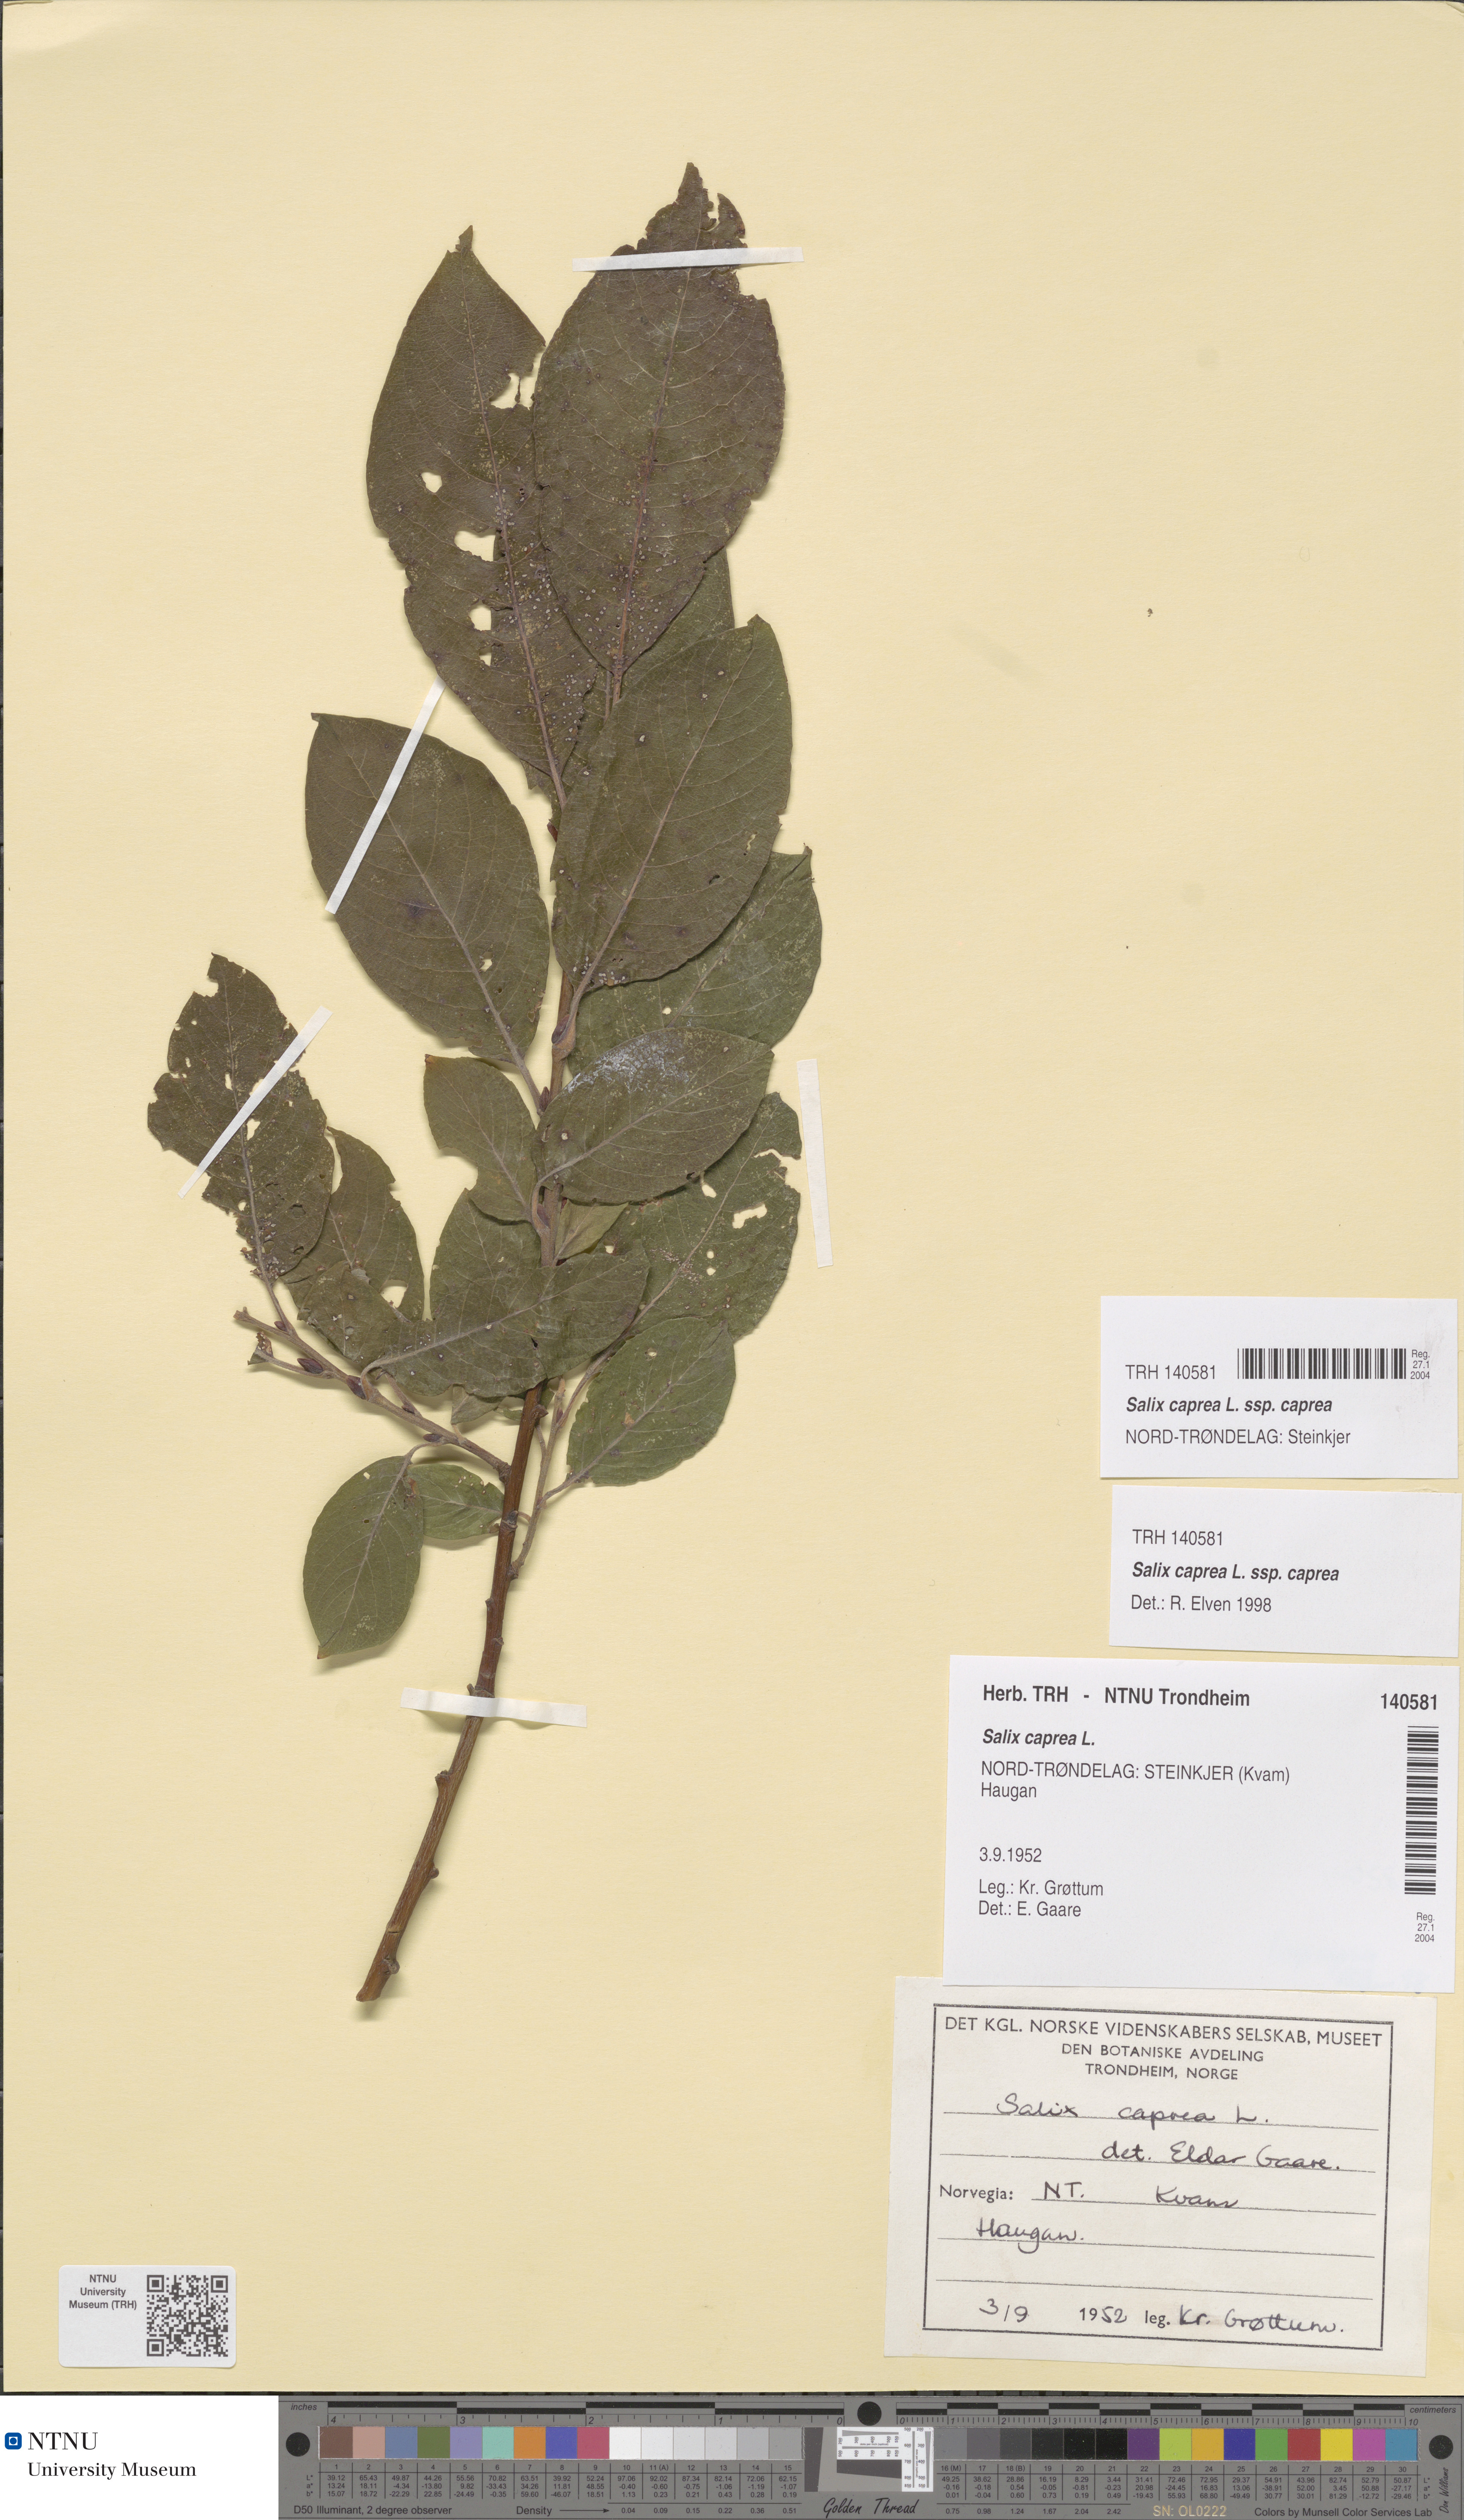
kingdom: Plantae
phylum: Tracheophyta
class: Magnoliopsida
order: Malpighiales
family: Salicaceae
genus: Salix
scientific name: Salix caprea
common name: Goat willow
